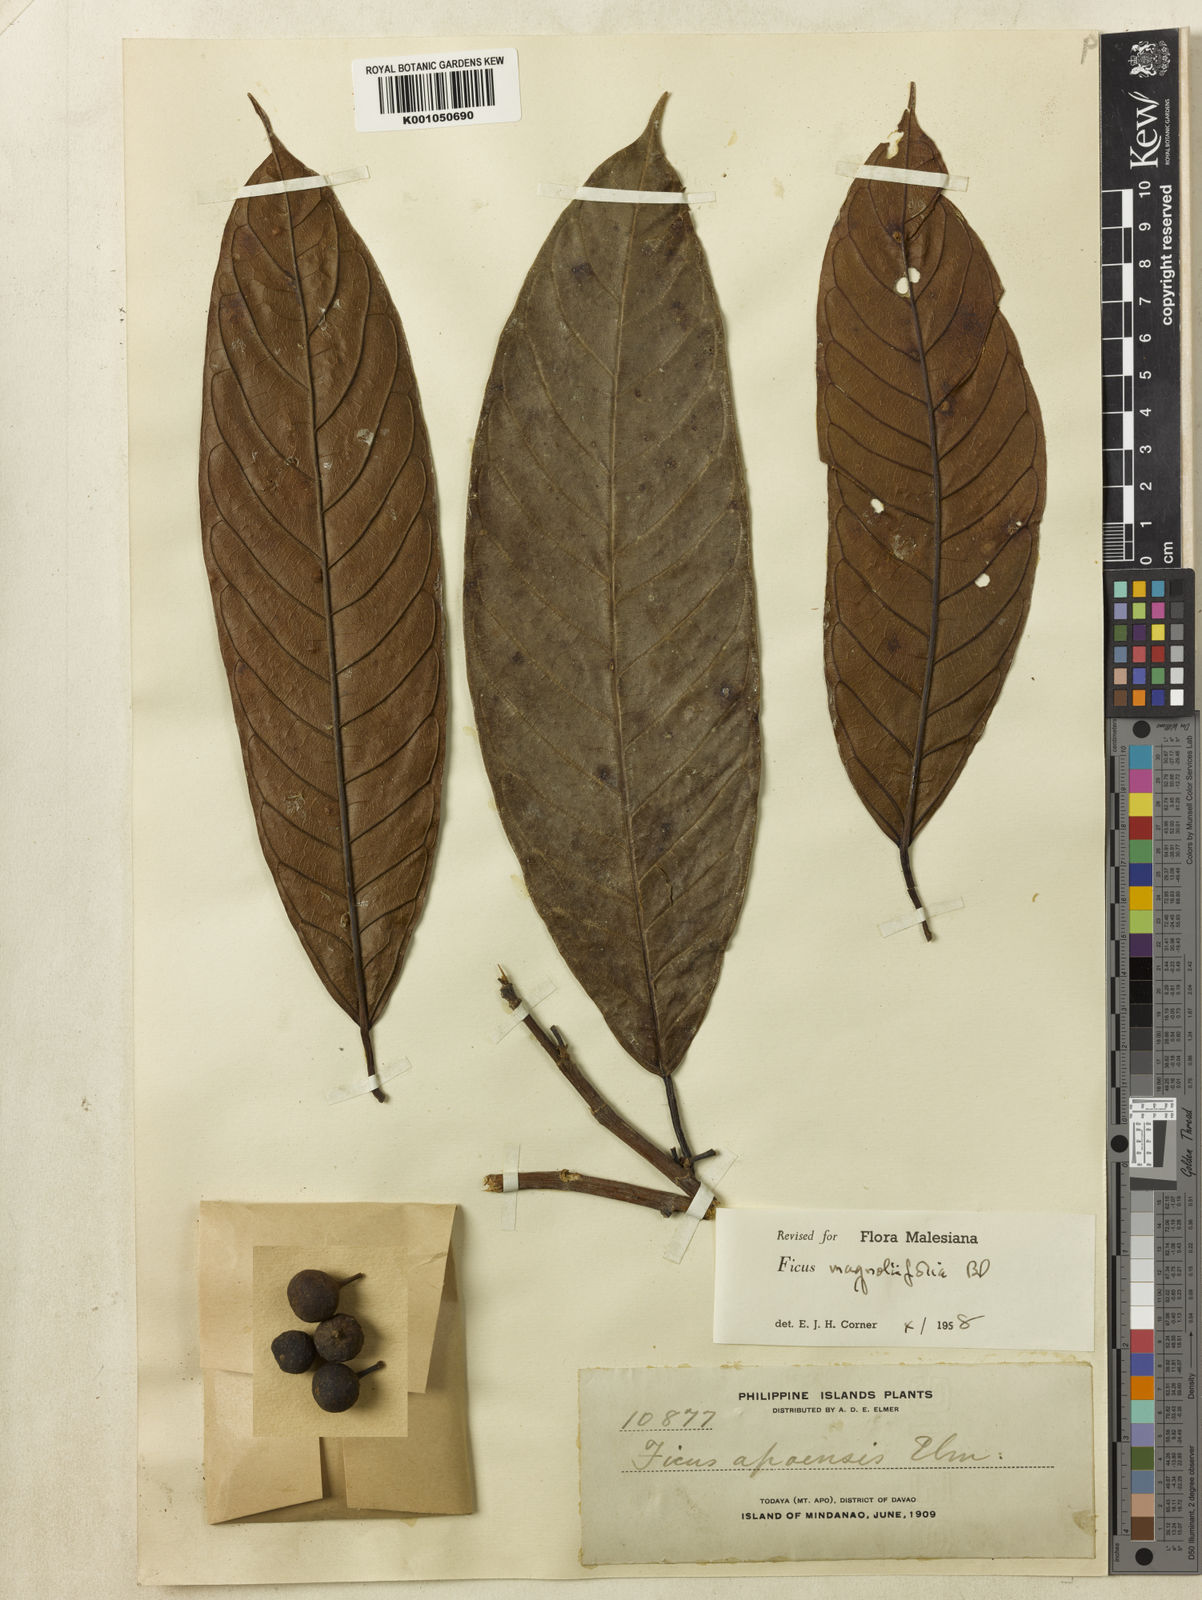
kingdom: Plantae
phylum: Tracheophyta
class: Magnoliopsida
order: Rosales
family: Moraceae
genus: Ficus
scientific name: Ficus magnoliifolia
